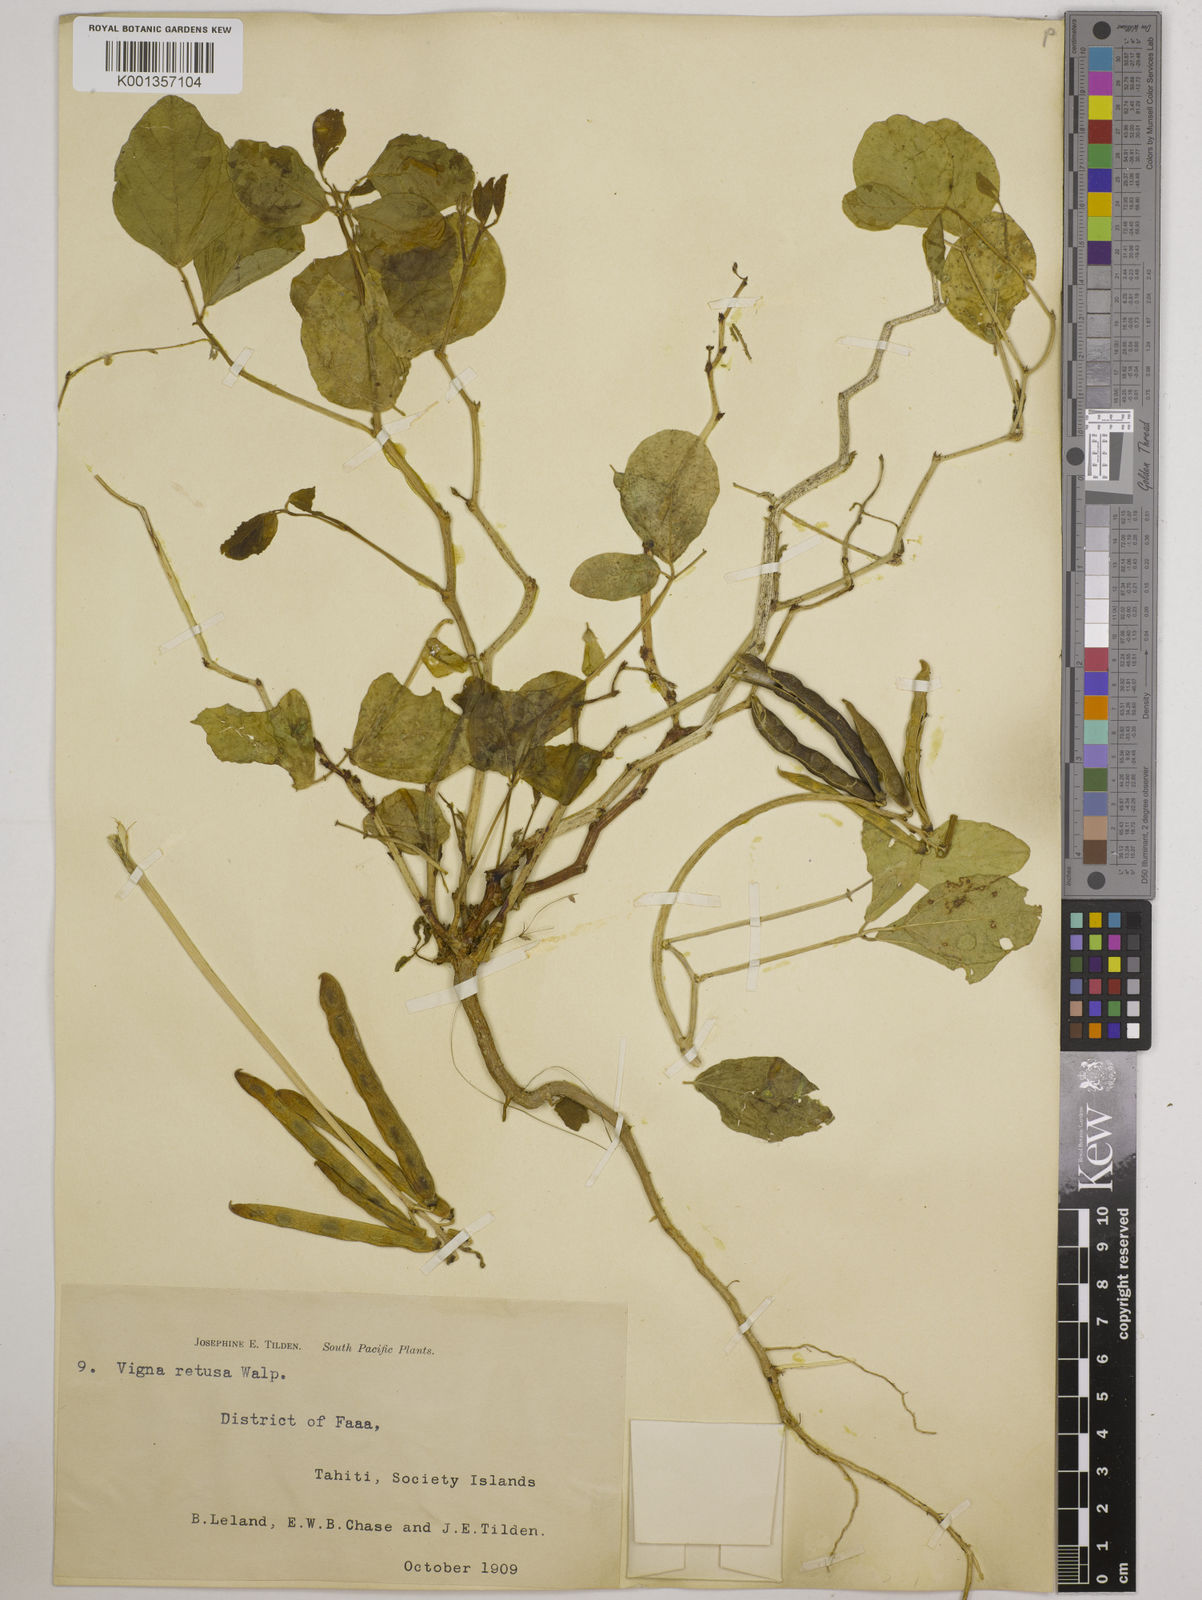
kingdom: Plantae
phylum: Tracheophyta
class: Magnoliopsida
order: Fabales
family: Fabaceae
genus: Vigna
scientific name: Vigna marina
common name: Dune-bean
